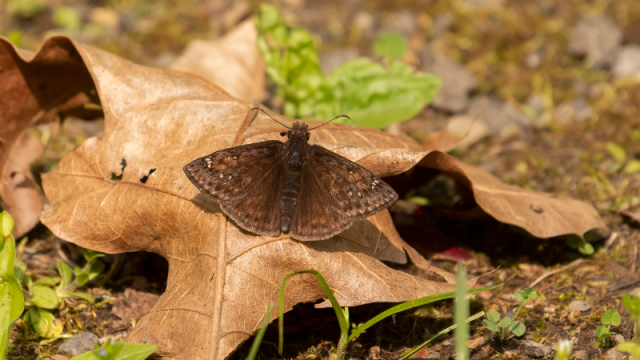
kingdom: Animalia
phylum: Arthropoda
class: Insecta
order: Lepidoptera
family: Hesperiidae
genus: Gesta
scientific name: Gesta
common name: Juvenal's Duskywing
